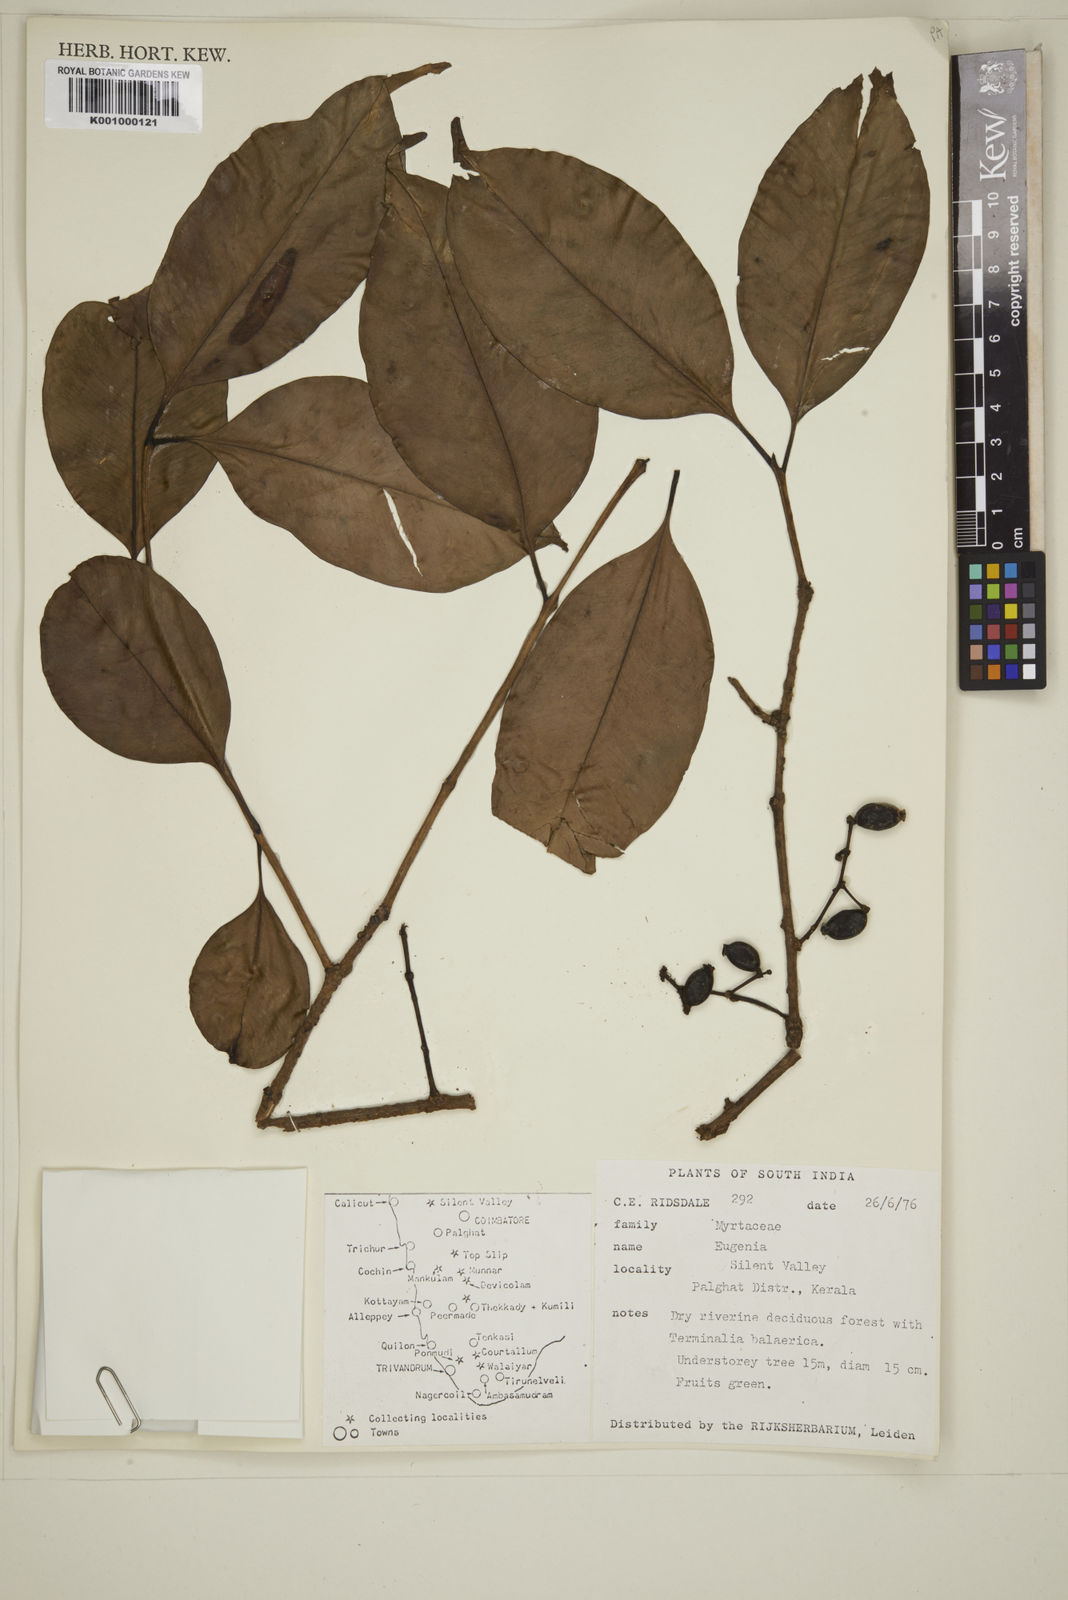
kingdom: Plantae
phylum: Tracheophyta
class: Magnoliopsida
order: Myrtales
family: Myrtaceae
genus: Eugenia
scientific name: Eugenia
